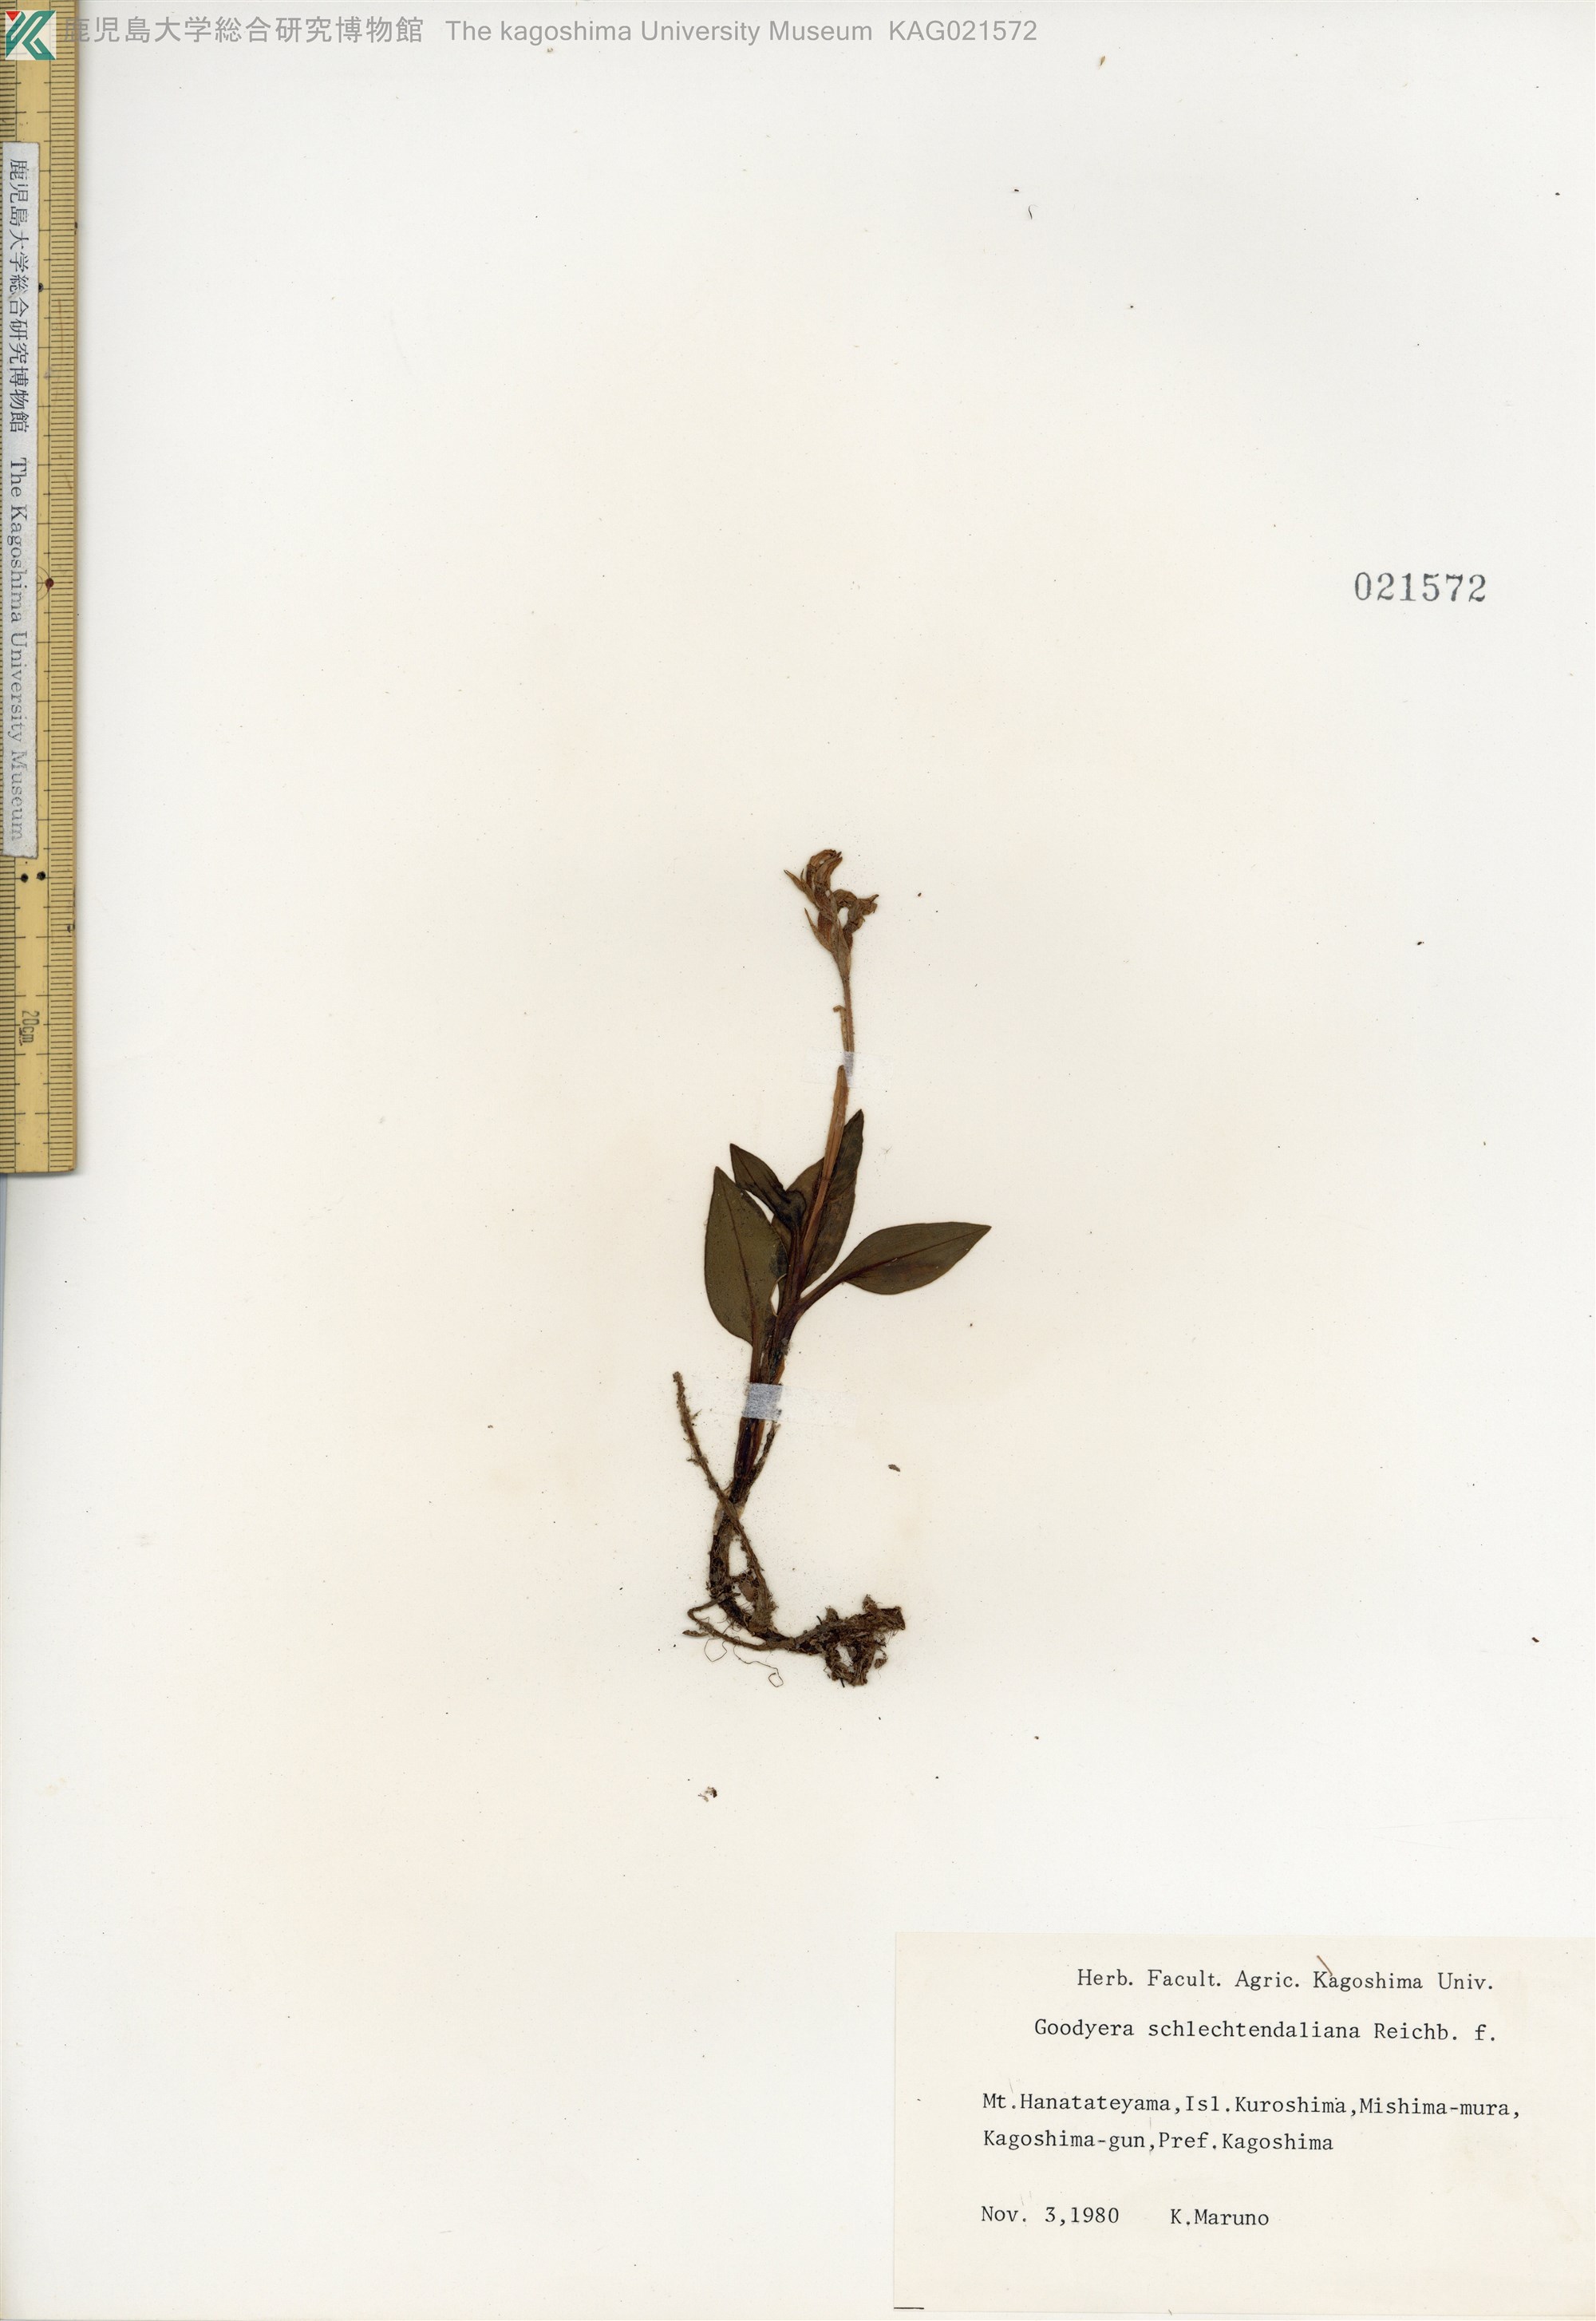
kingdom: Plantae
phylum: Tracheophyta
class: Liliopsida
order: Asparagales
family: Orchidaceae
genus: Goodyera
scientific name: Goodyera schlechtendaliana
